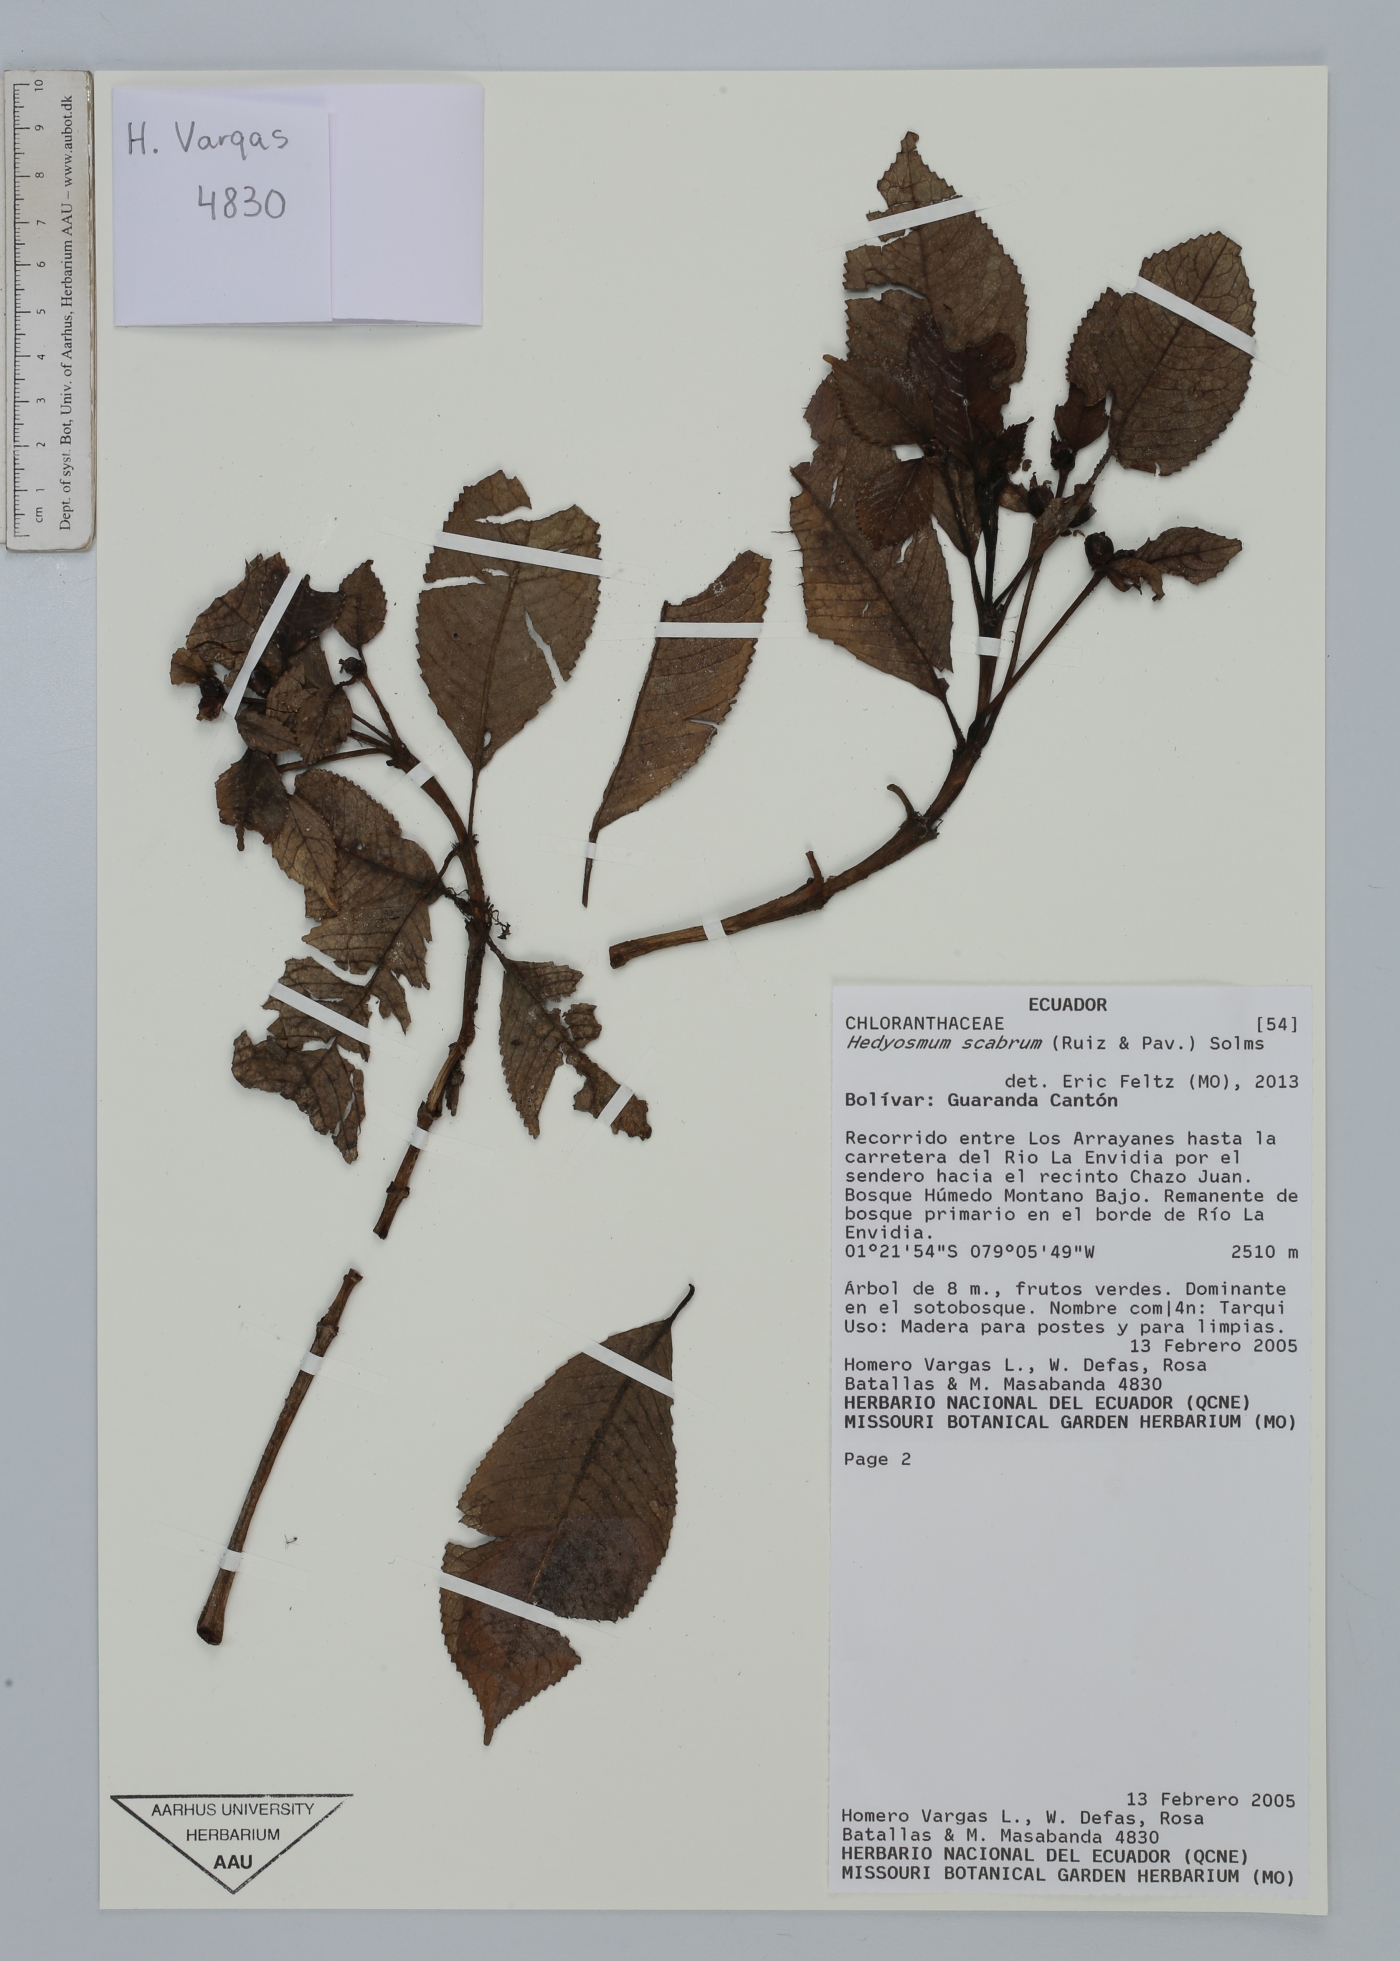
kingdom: Plantae
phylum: Tracheophyta
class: Magnoliopsida
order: Chloranthales
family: Chloranthaceae
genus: Hedyosmum
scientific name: Hedyosmum scabrum
